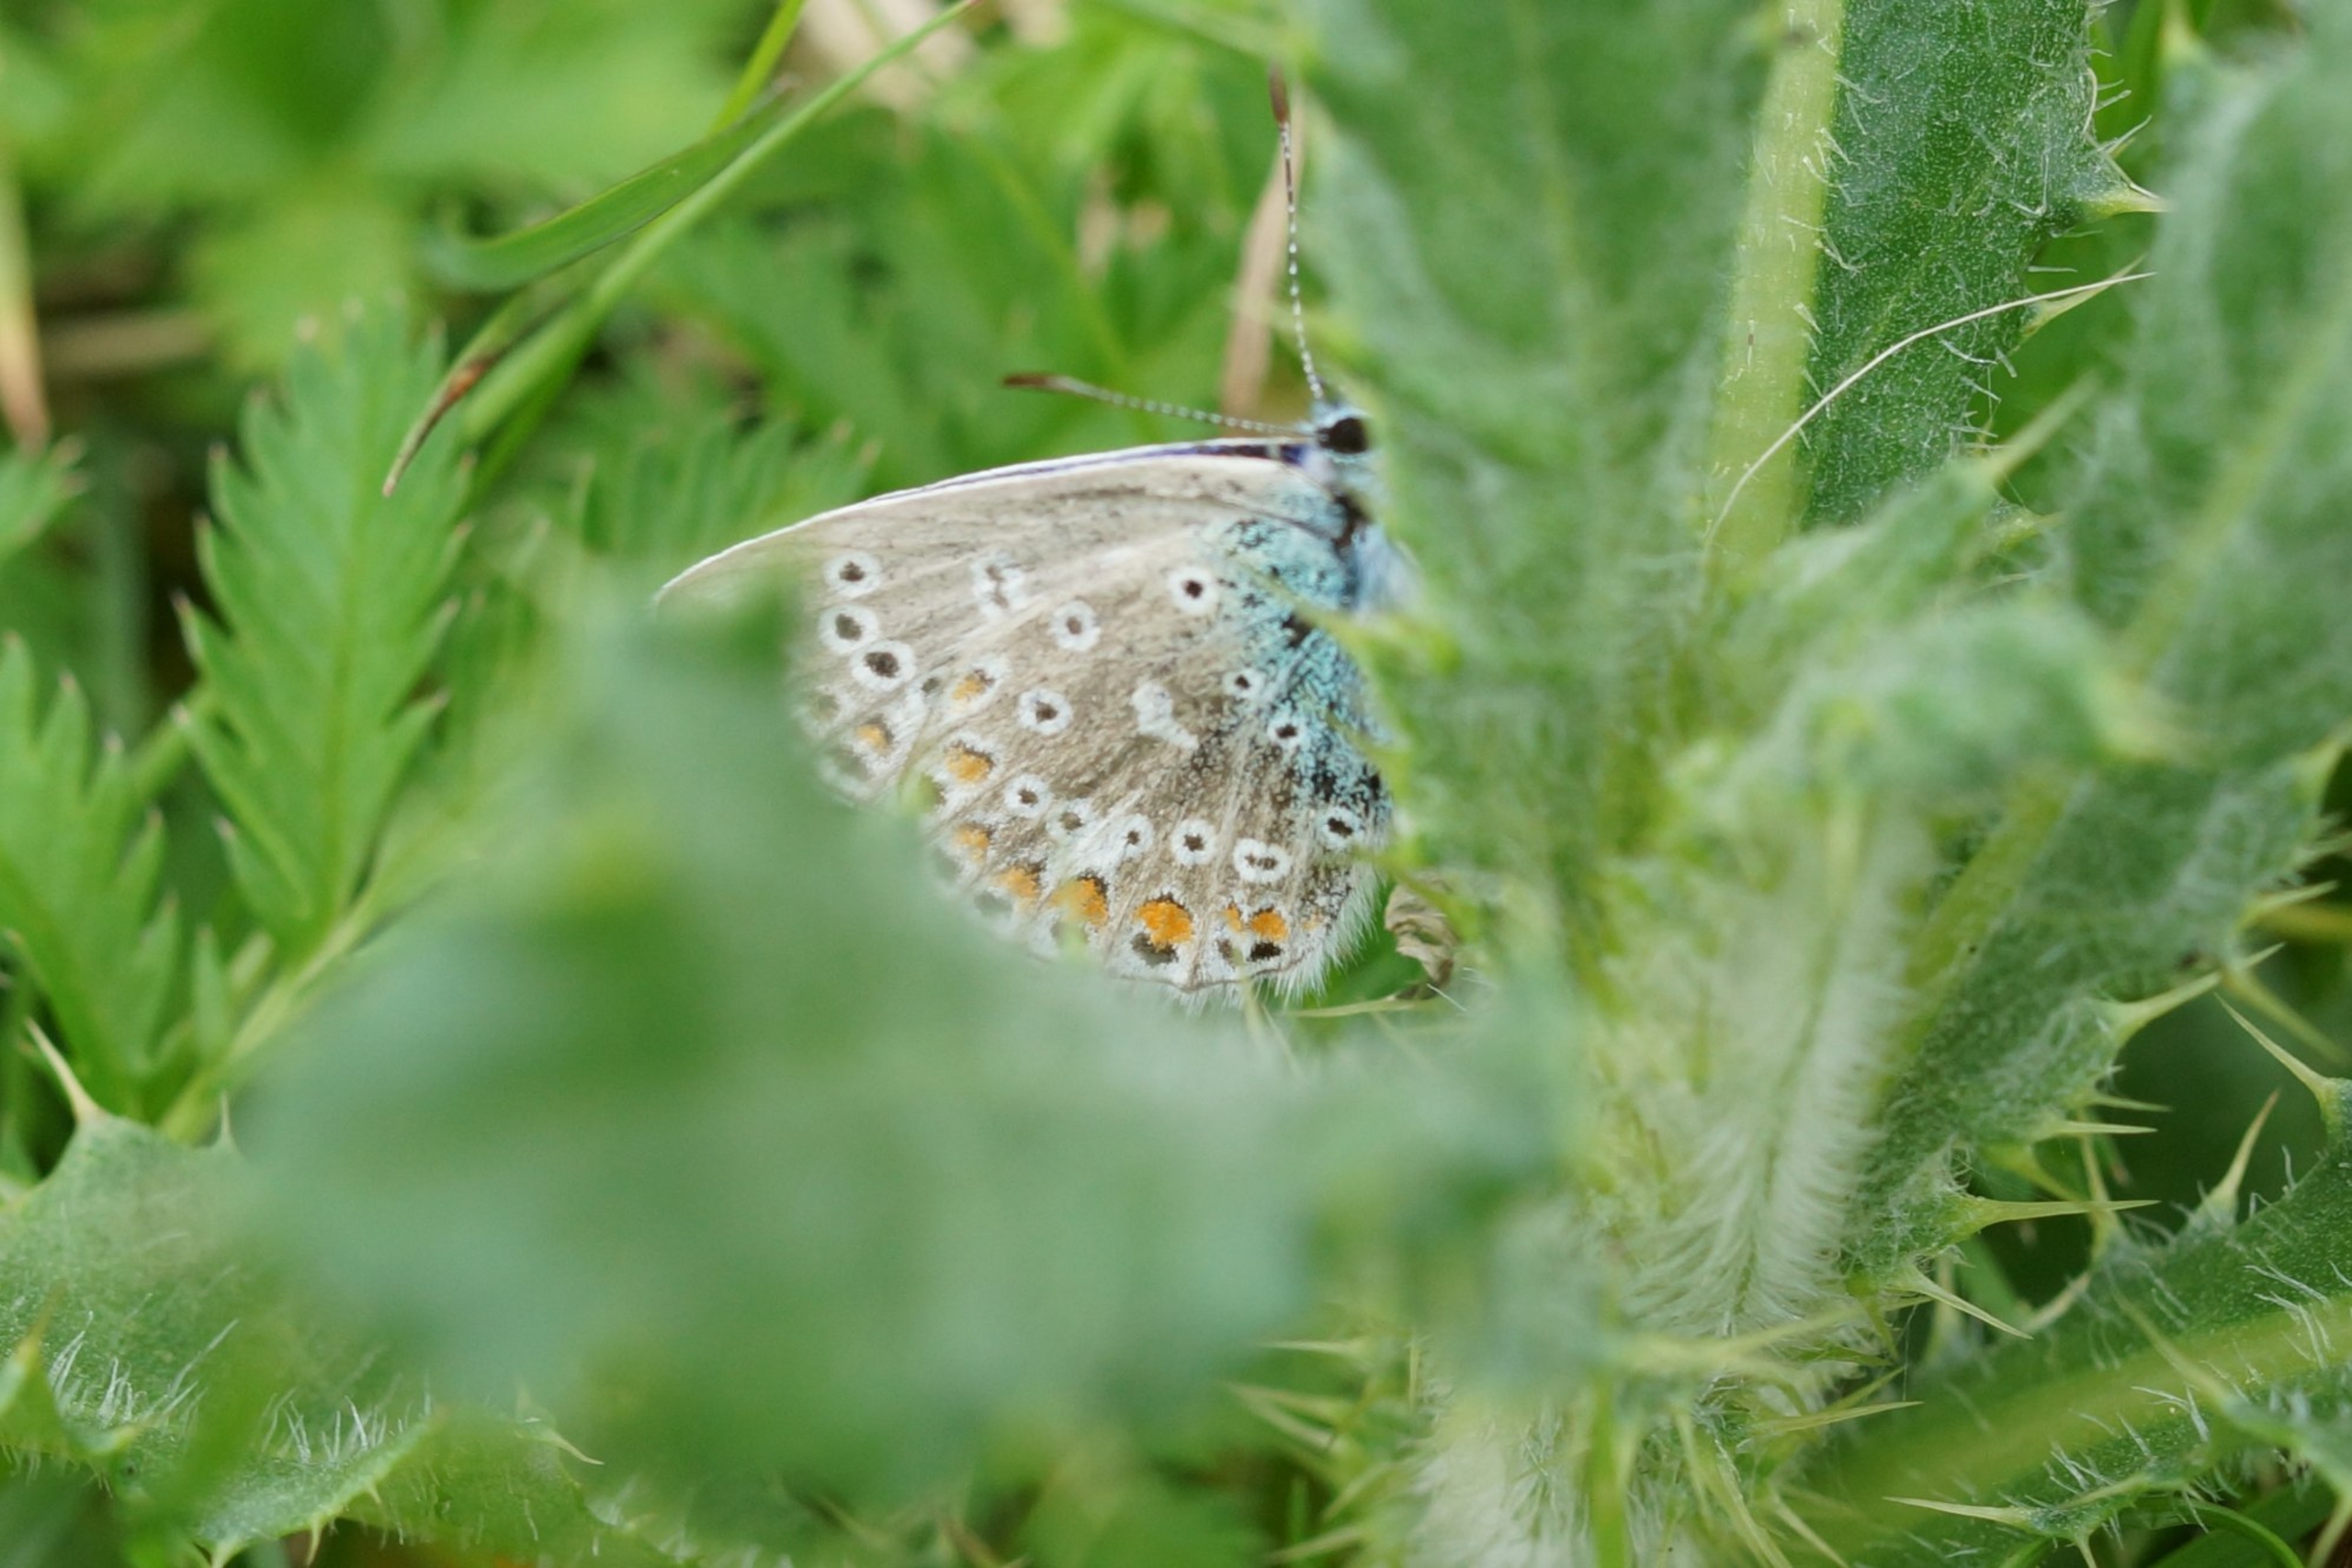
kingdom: Animalia
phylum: Arthropoda
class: Insecta
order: Lepidoptera
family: Lycaenidae
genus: Polyommatus
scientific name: Polyommatus icarus
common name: Almindelig blåfugl
